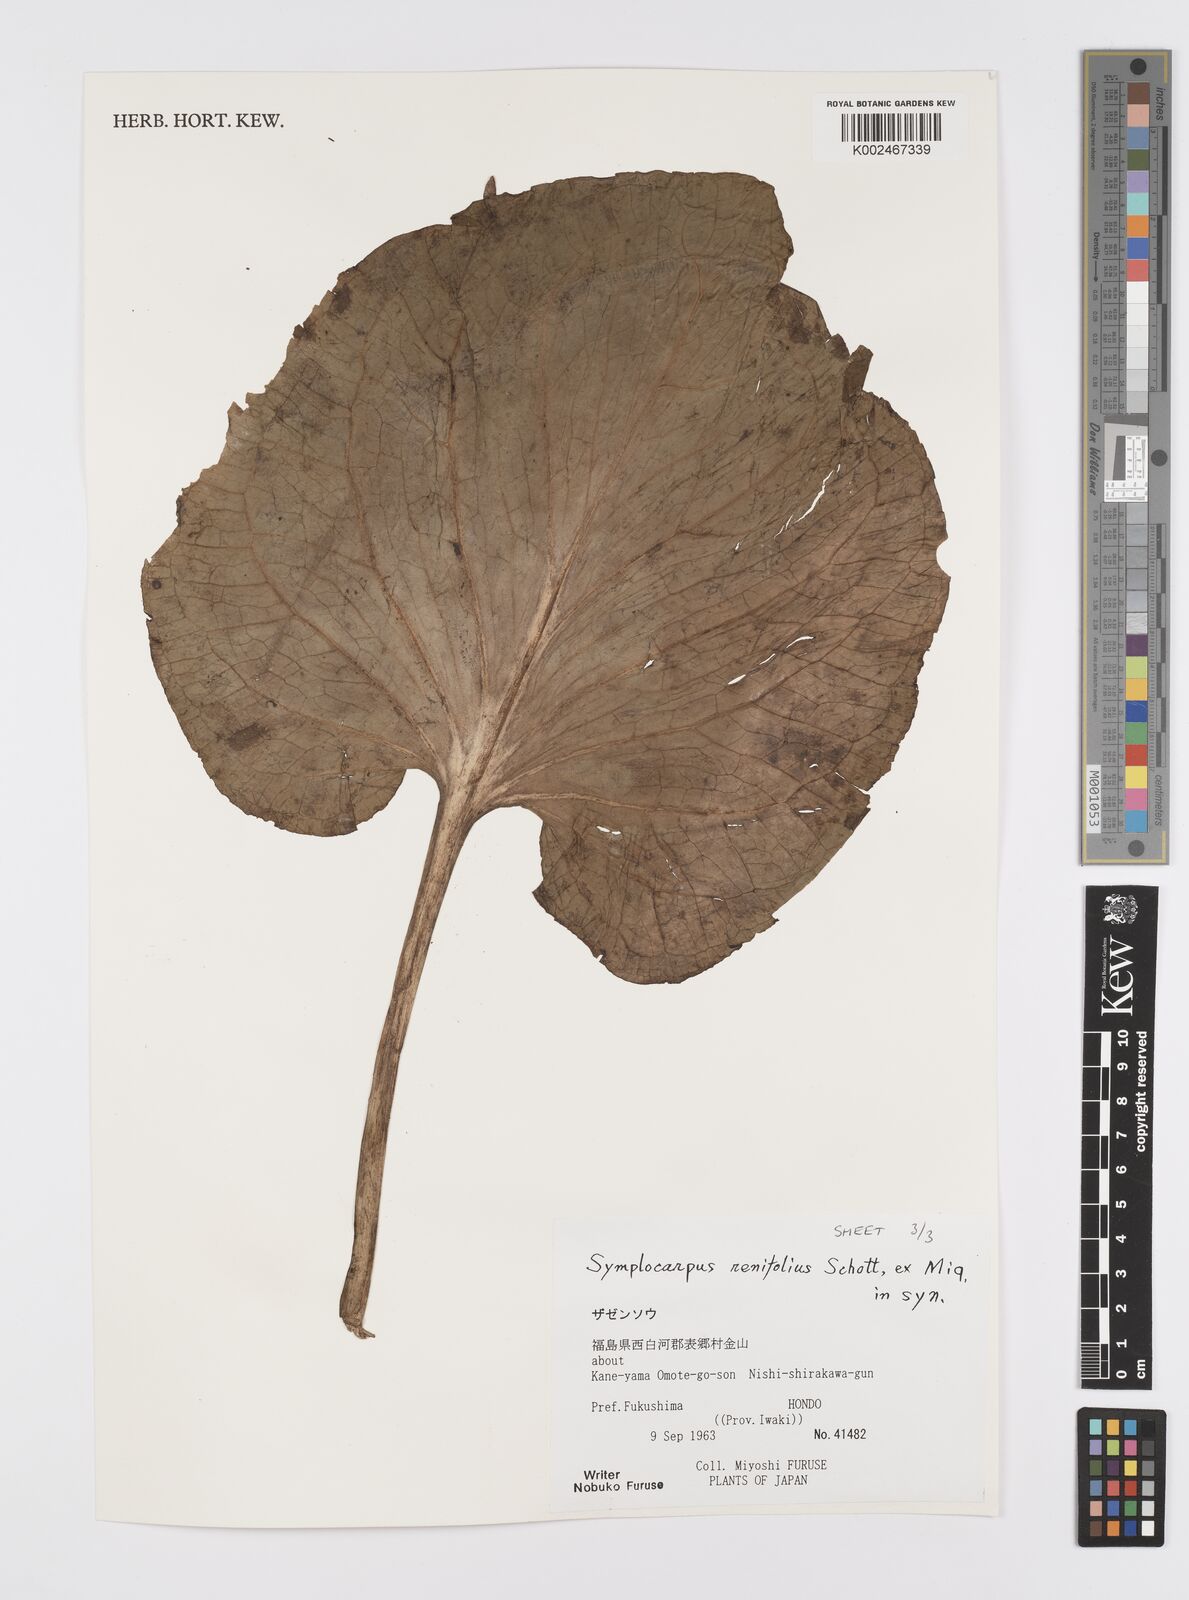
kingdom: Plantae
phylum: Tracheophyta
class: Liliopsida
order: Alismatales
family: Araceae
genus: Symplocarpus
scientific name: Symplocarpus renifolius
